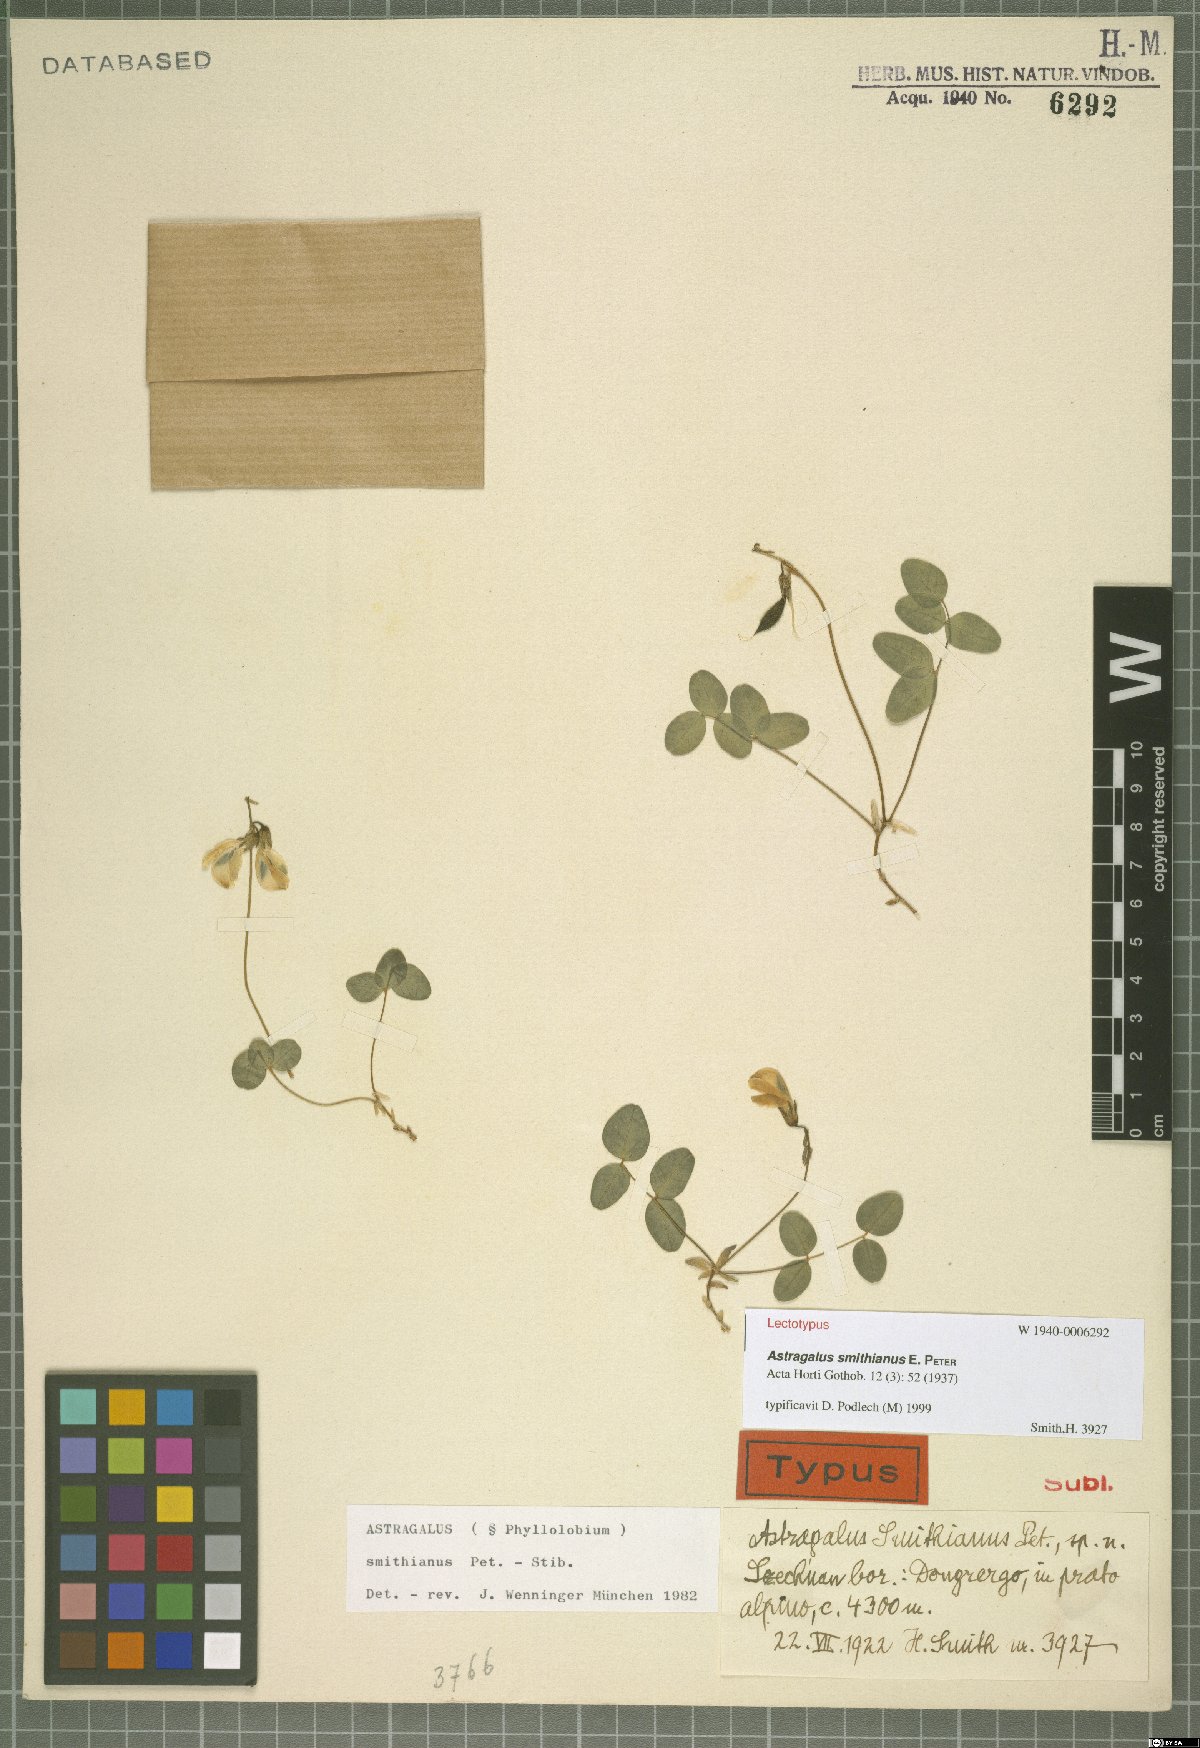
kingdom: Plantae
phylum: Tracheophyta
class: Magnoliopsida
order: Fabales
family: Fabaceae
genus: Astragalus
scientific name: Astragalus smithianus
